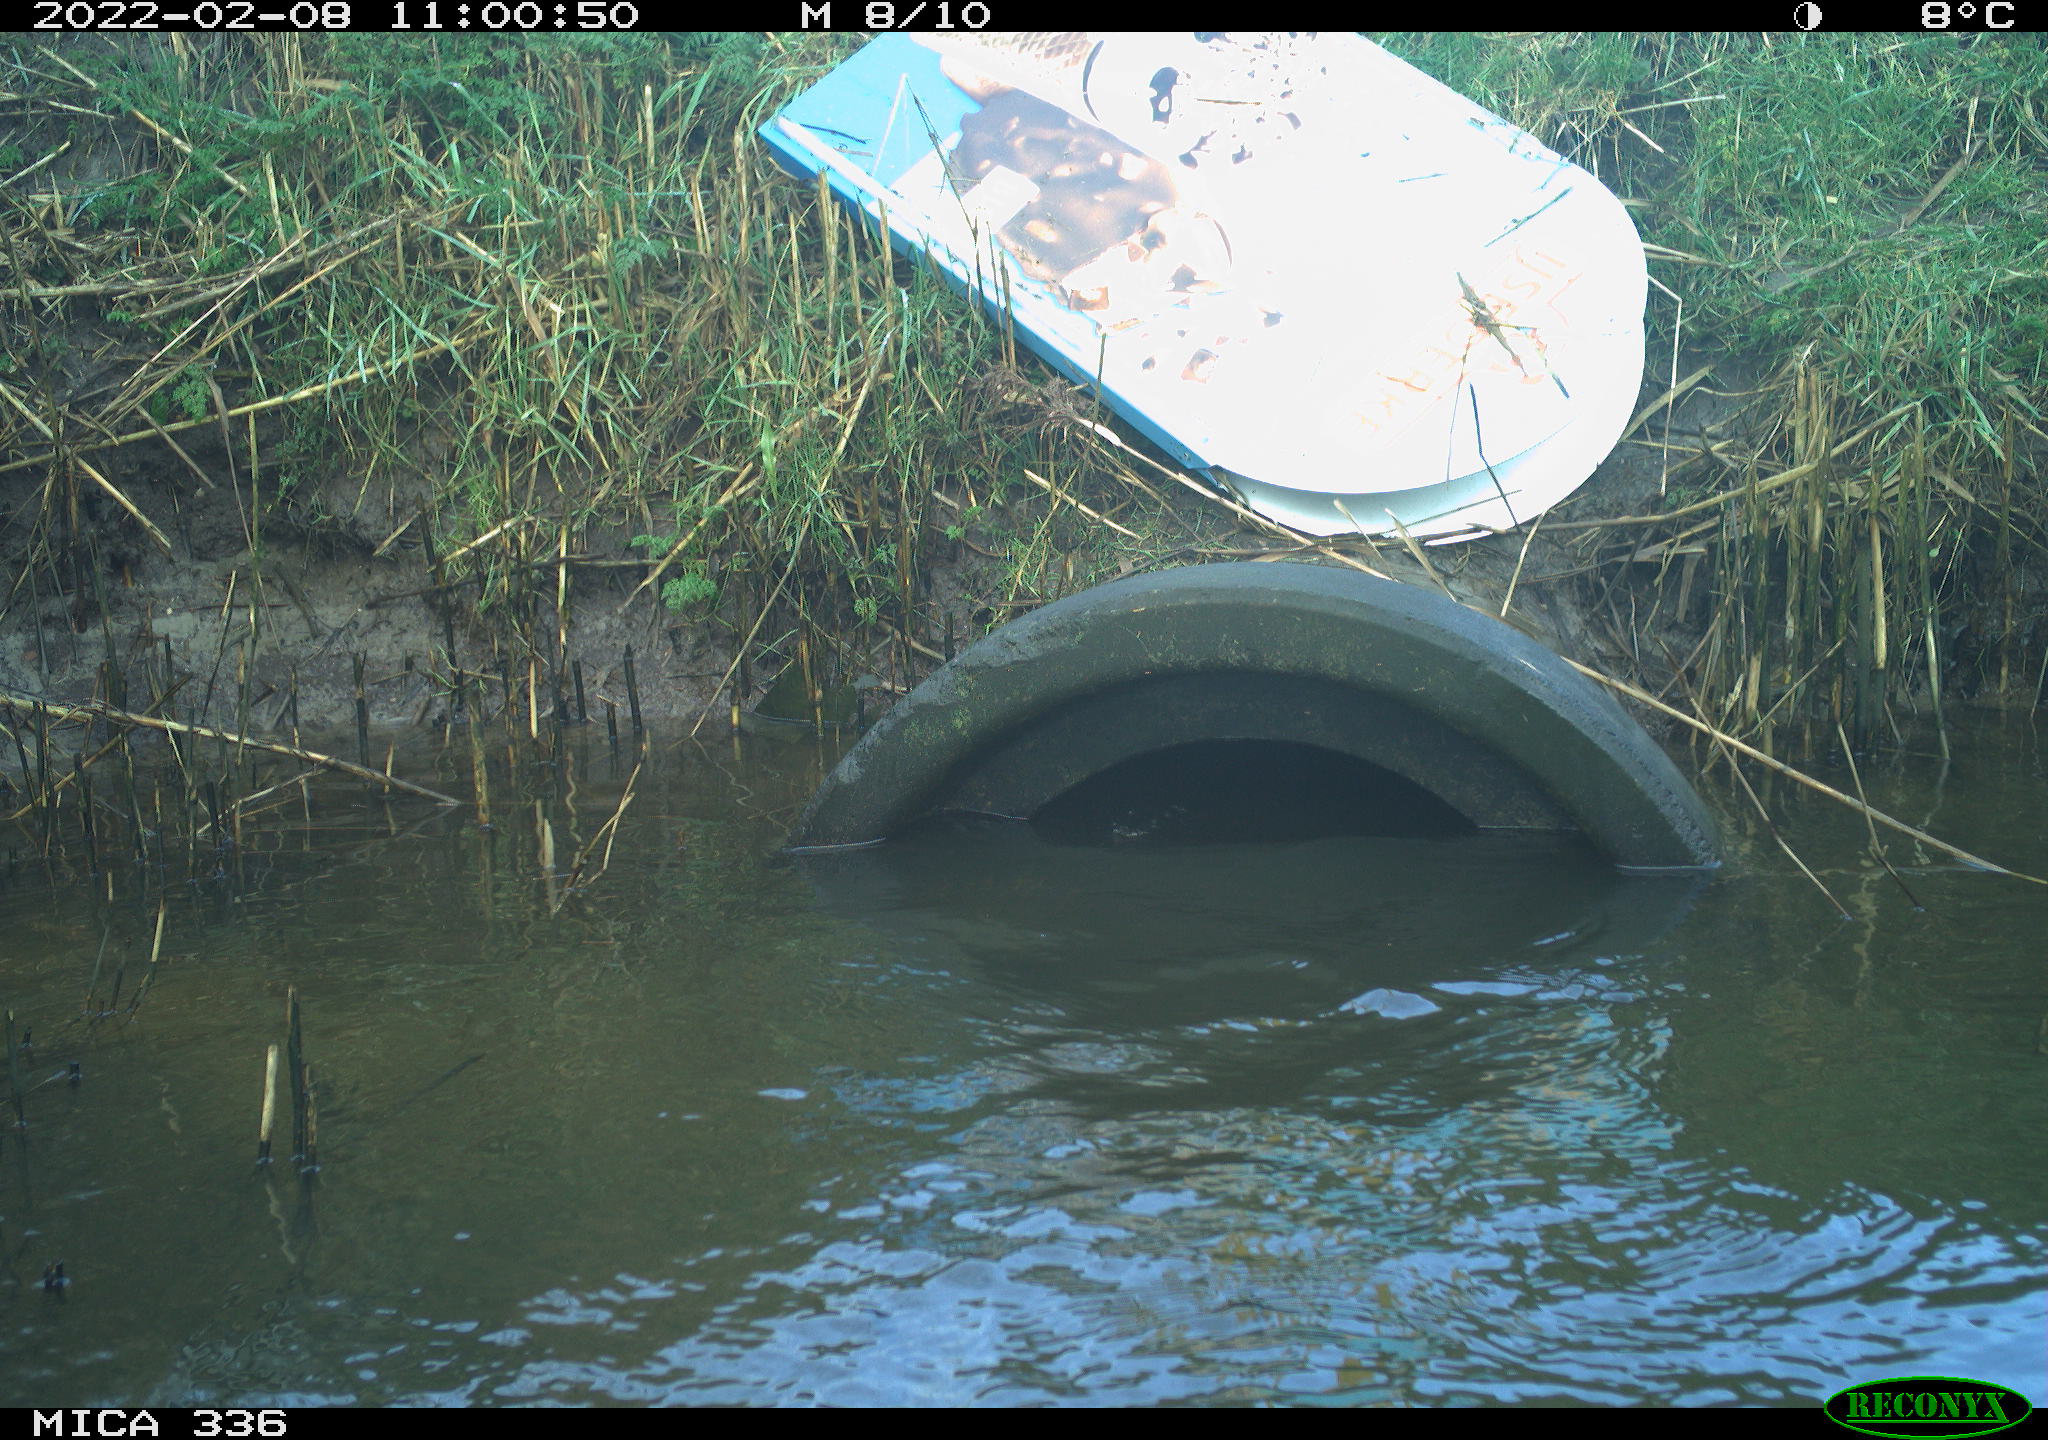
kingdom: Animalia
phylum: Chordata
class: Aves
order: Suliformes
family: Phalacrocoracidae
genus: Phalacrocorax
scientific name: Phalacrocorax carbo
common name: Great cormorant
